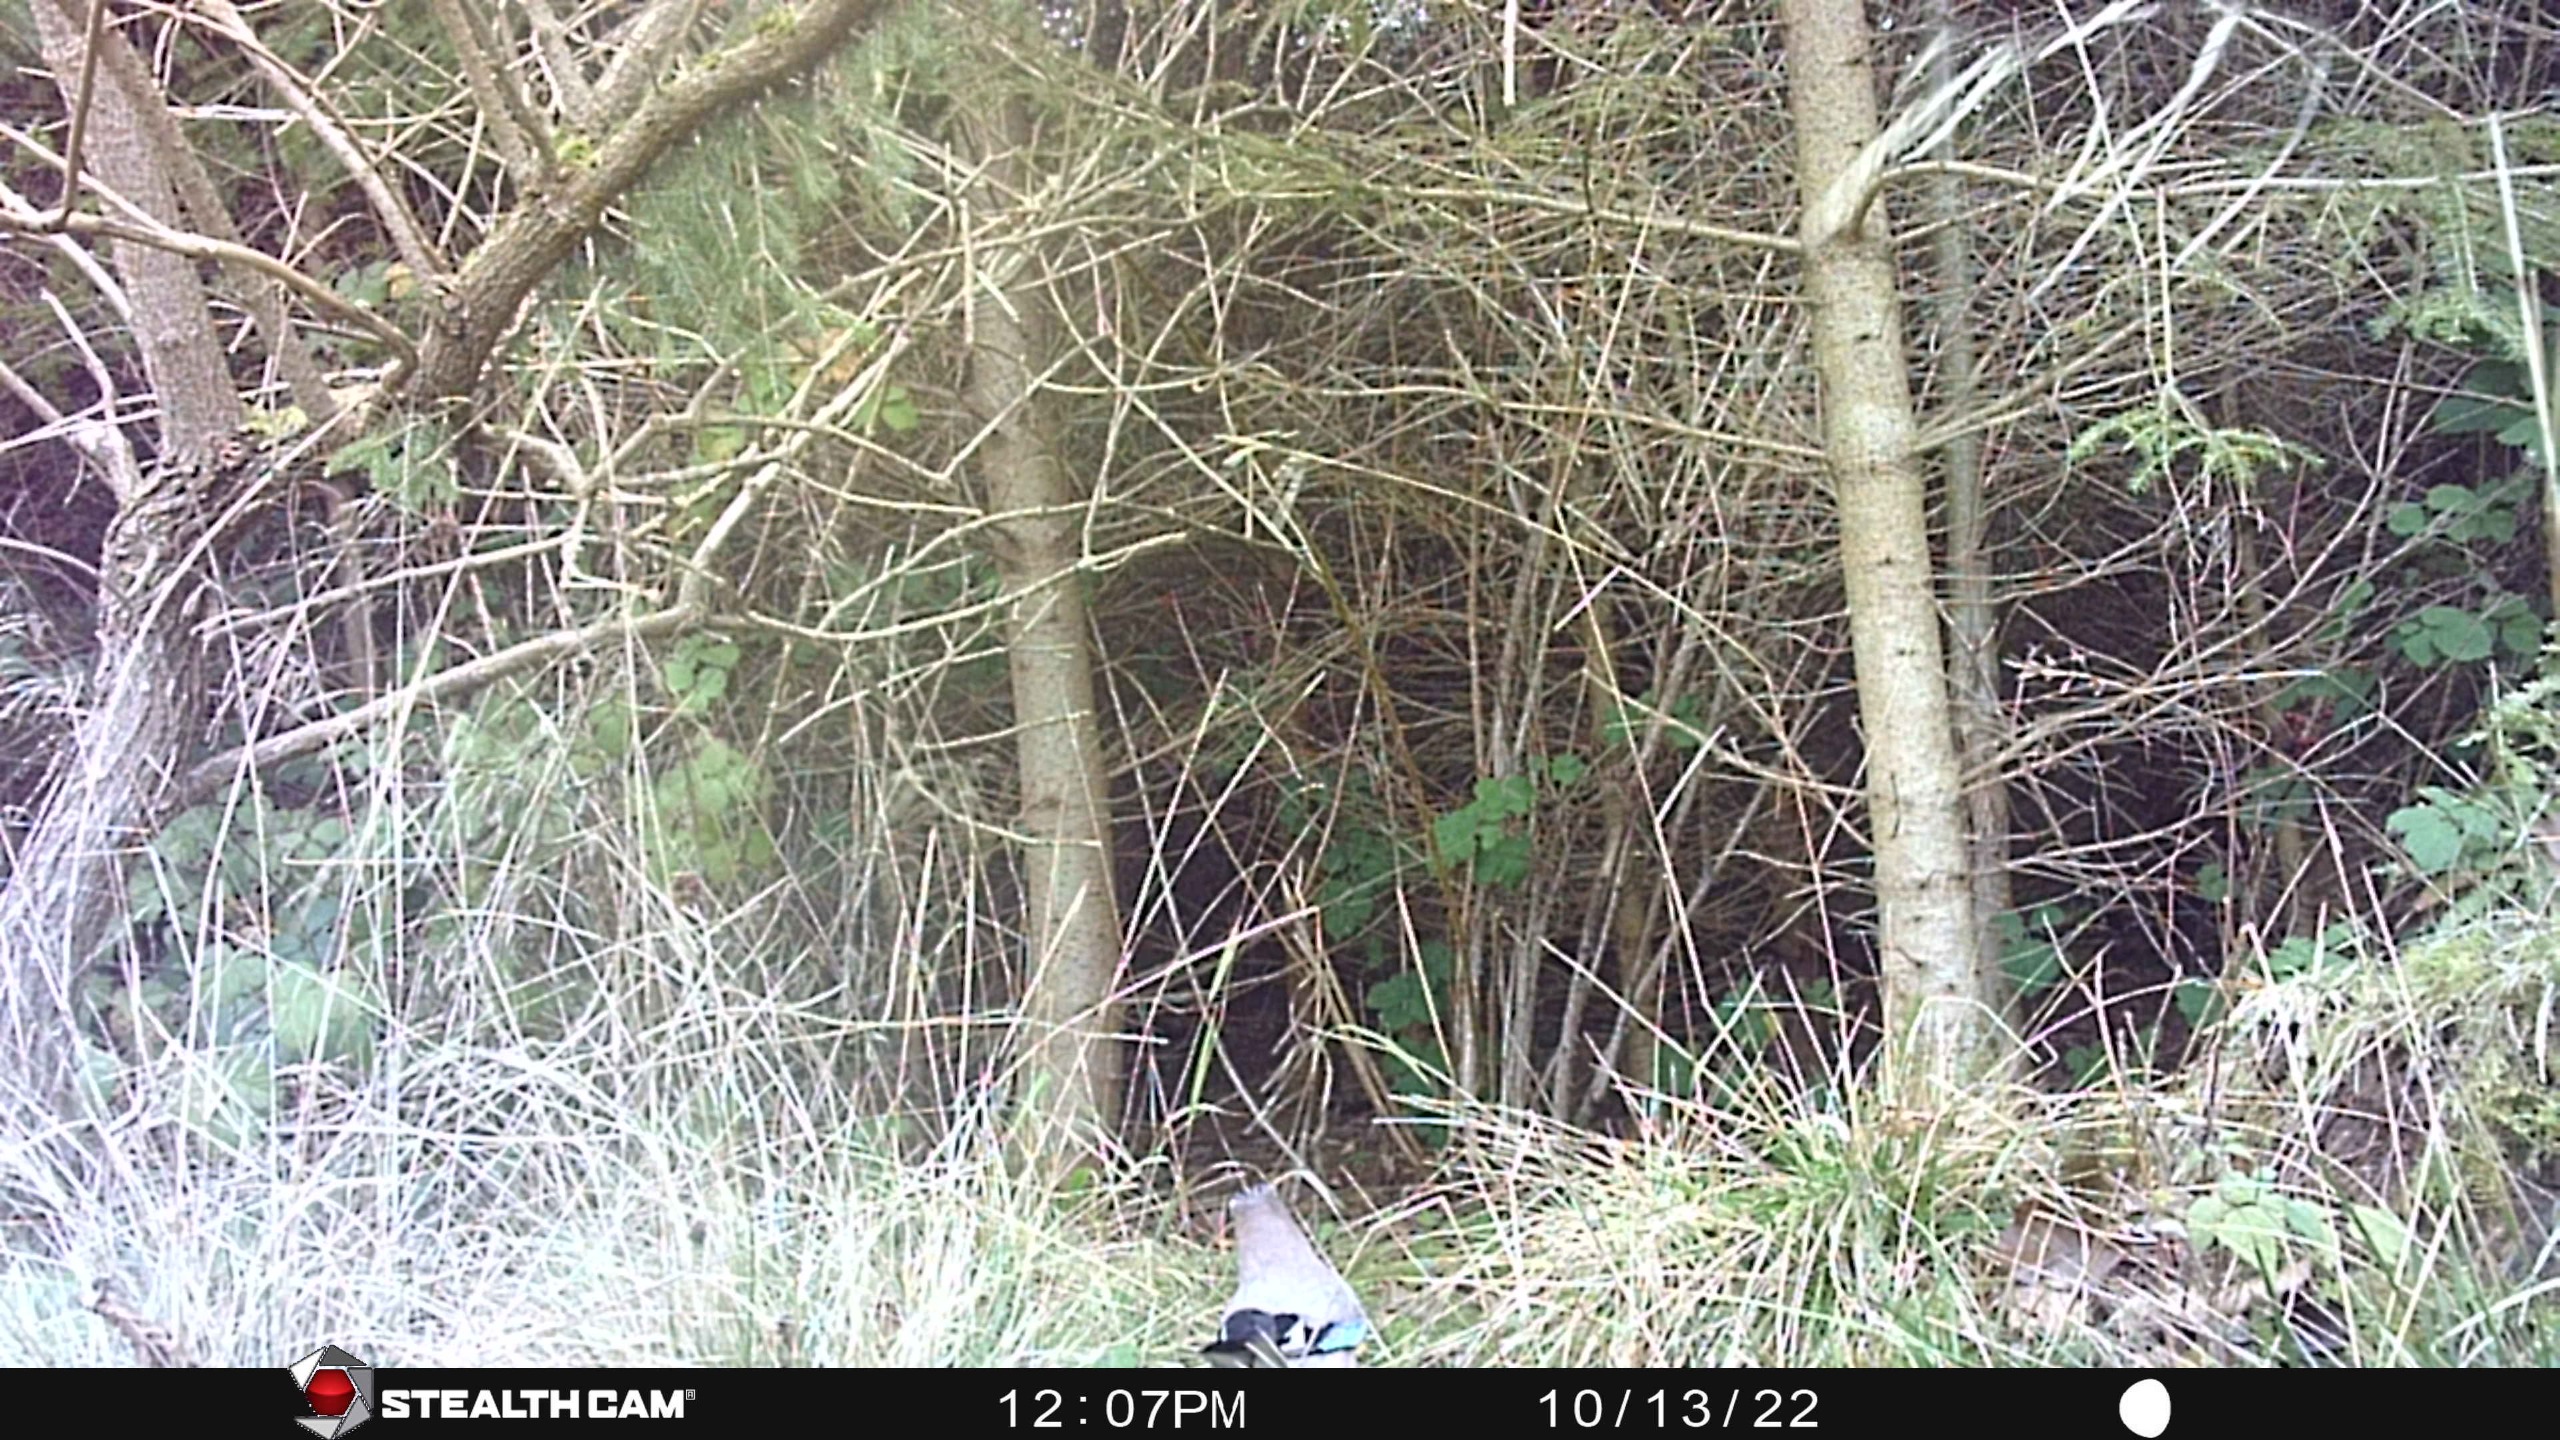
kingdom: Animalia
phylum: Chordata
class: Aves
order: Passeriformes
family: Corvidae
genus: Garrulus
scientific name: Garrulus glandarius
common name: Skovskade
